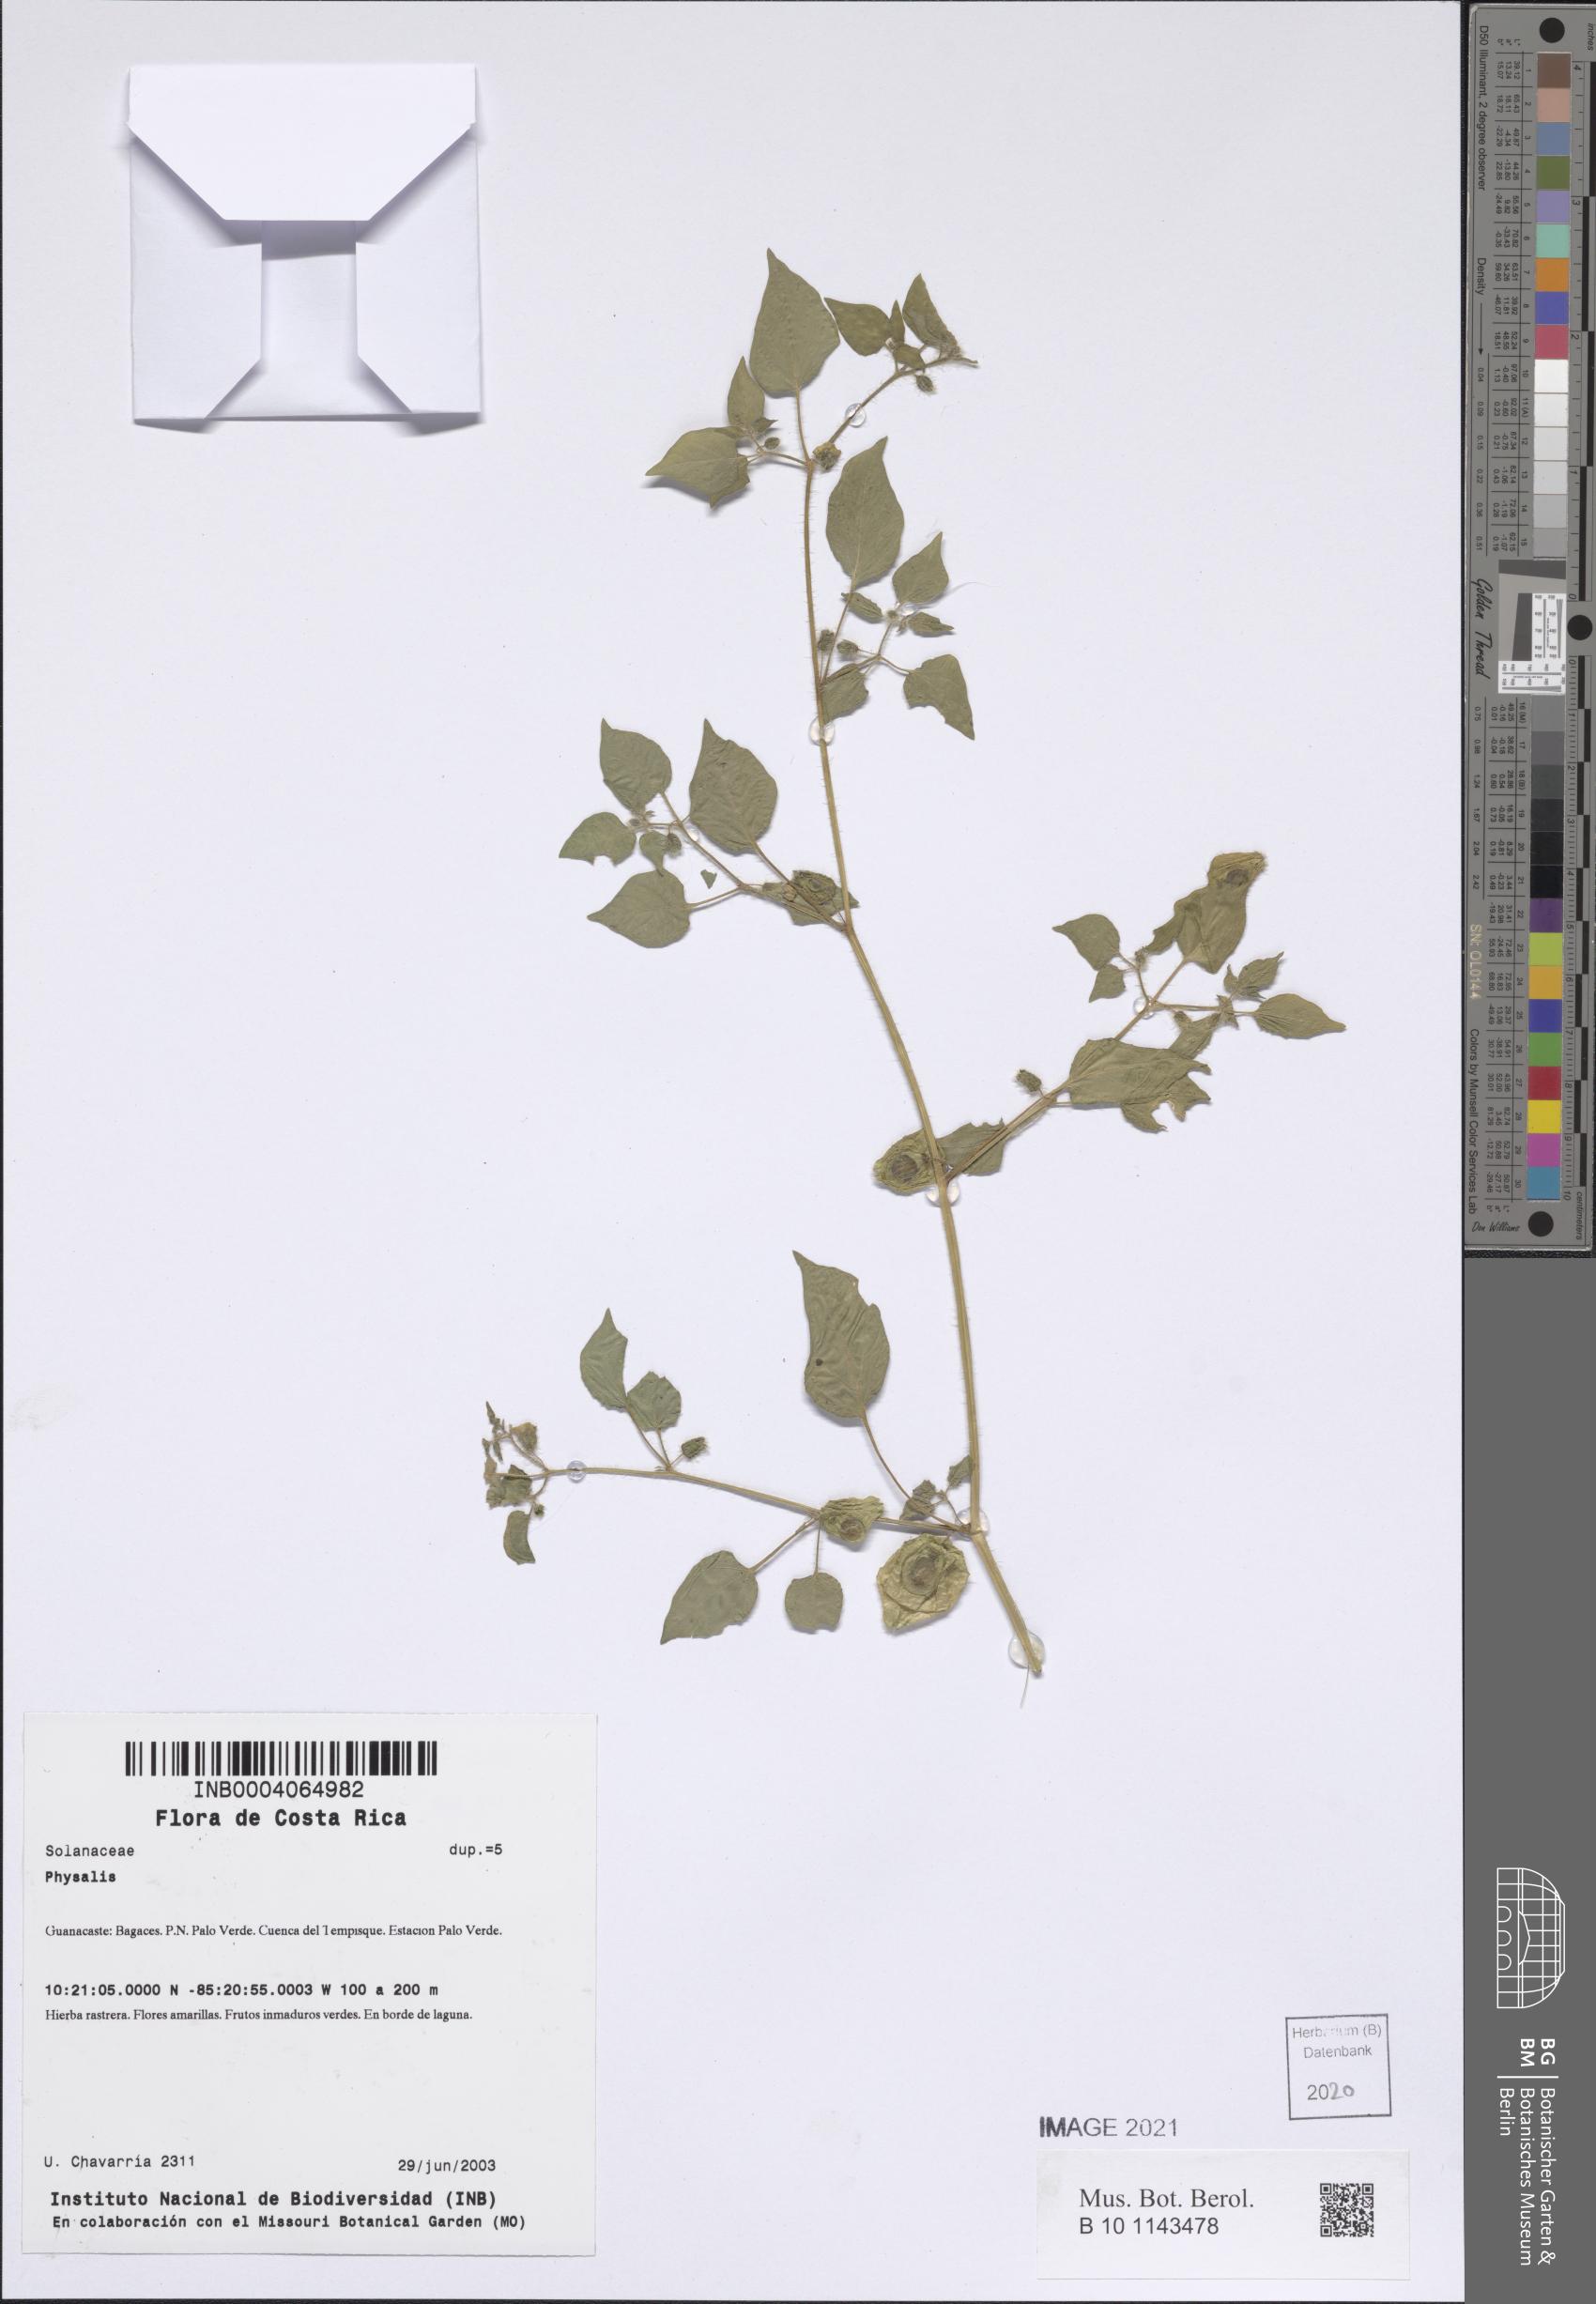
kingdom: Plantae
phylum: Tracheophyta
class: Magnoliopsida
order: Solanales
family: Solanaceae
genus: Physalis
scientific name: Physalis
